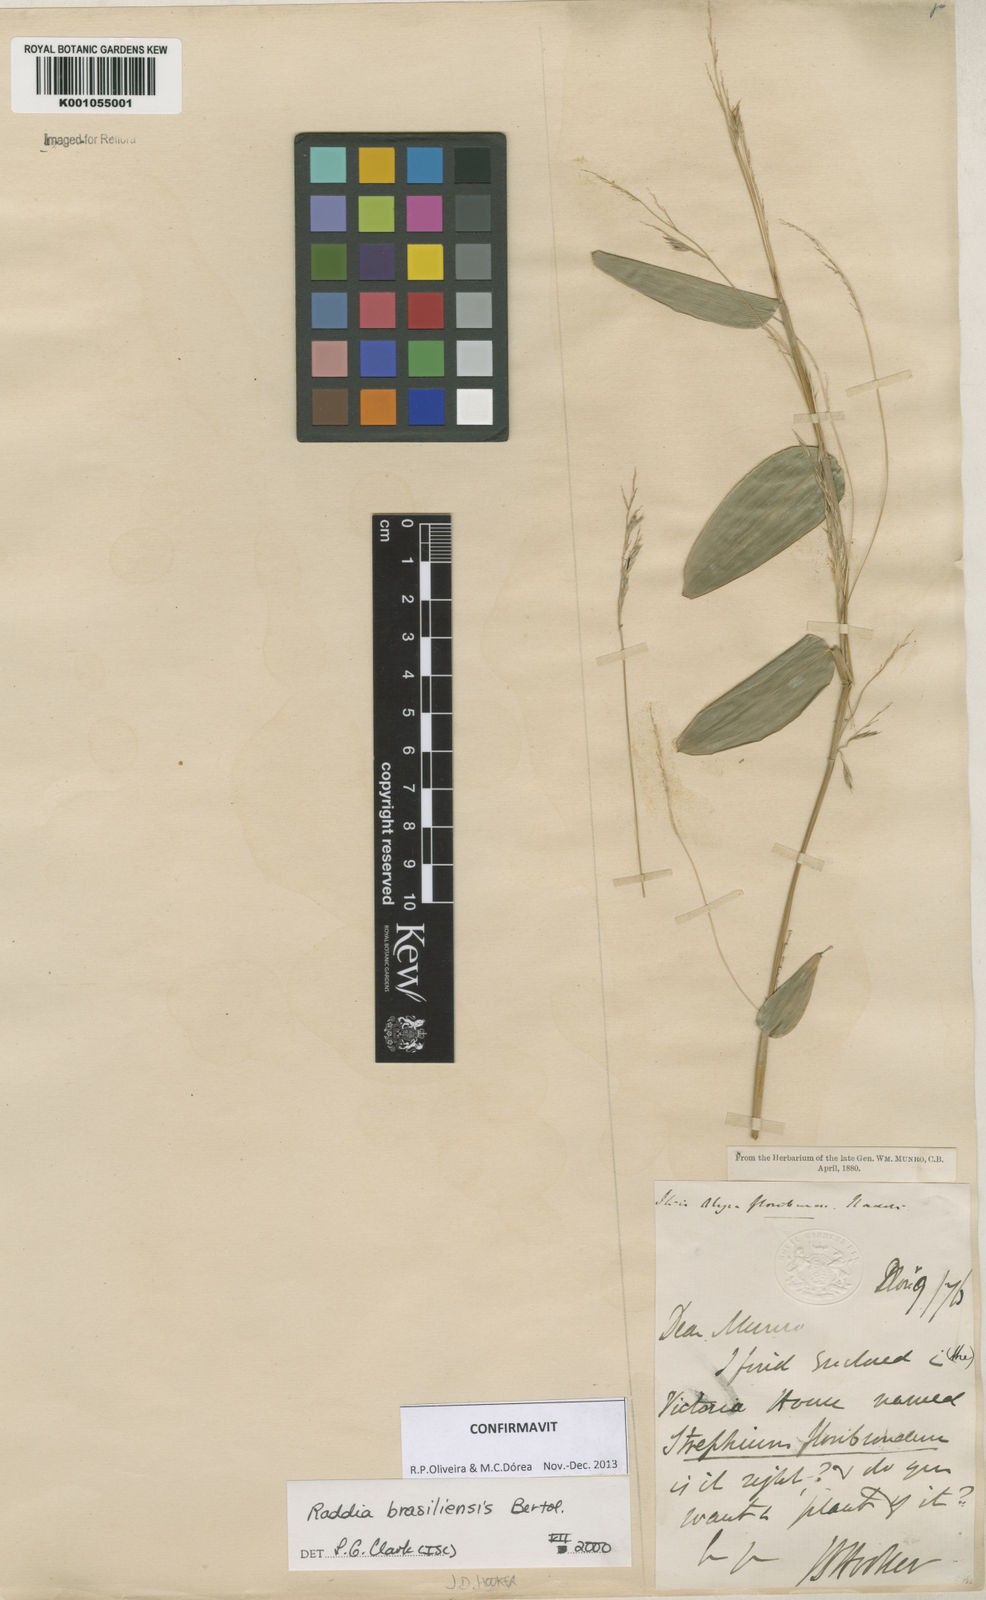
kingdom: Plantae
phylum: Tracheophyta
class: Liliopsida
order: Poales
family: Poaceae
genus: Raddia
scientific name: Raddia brasiliensis
